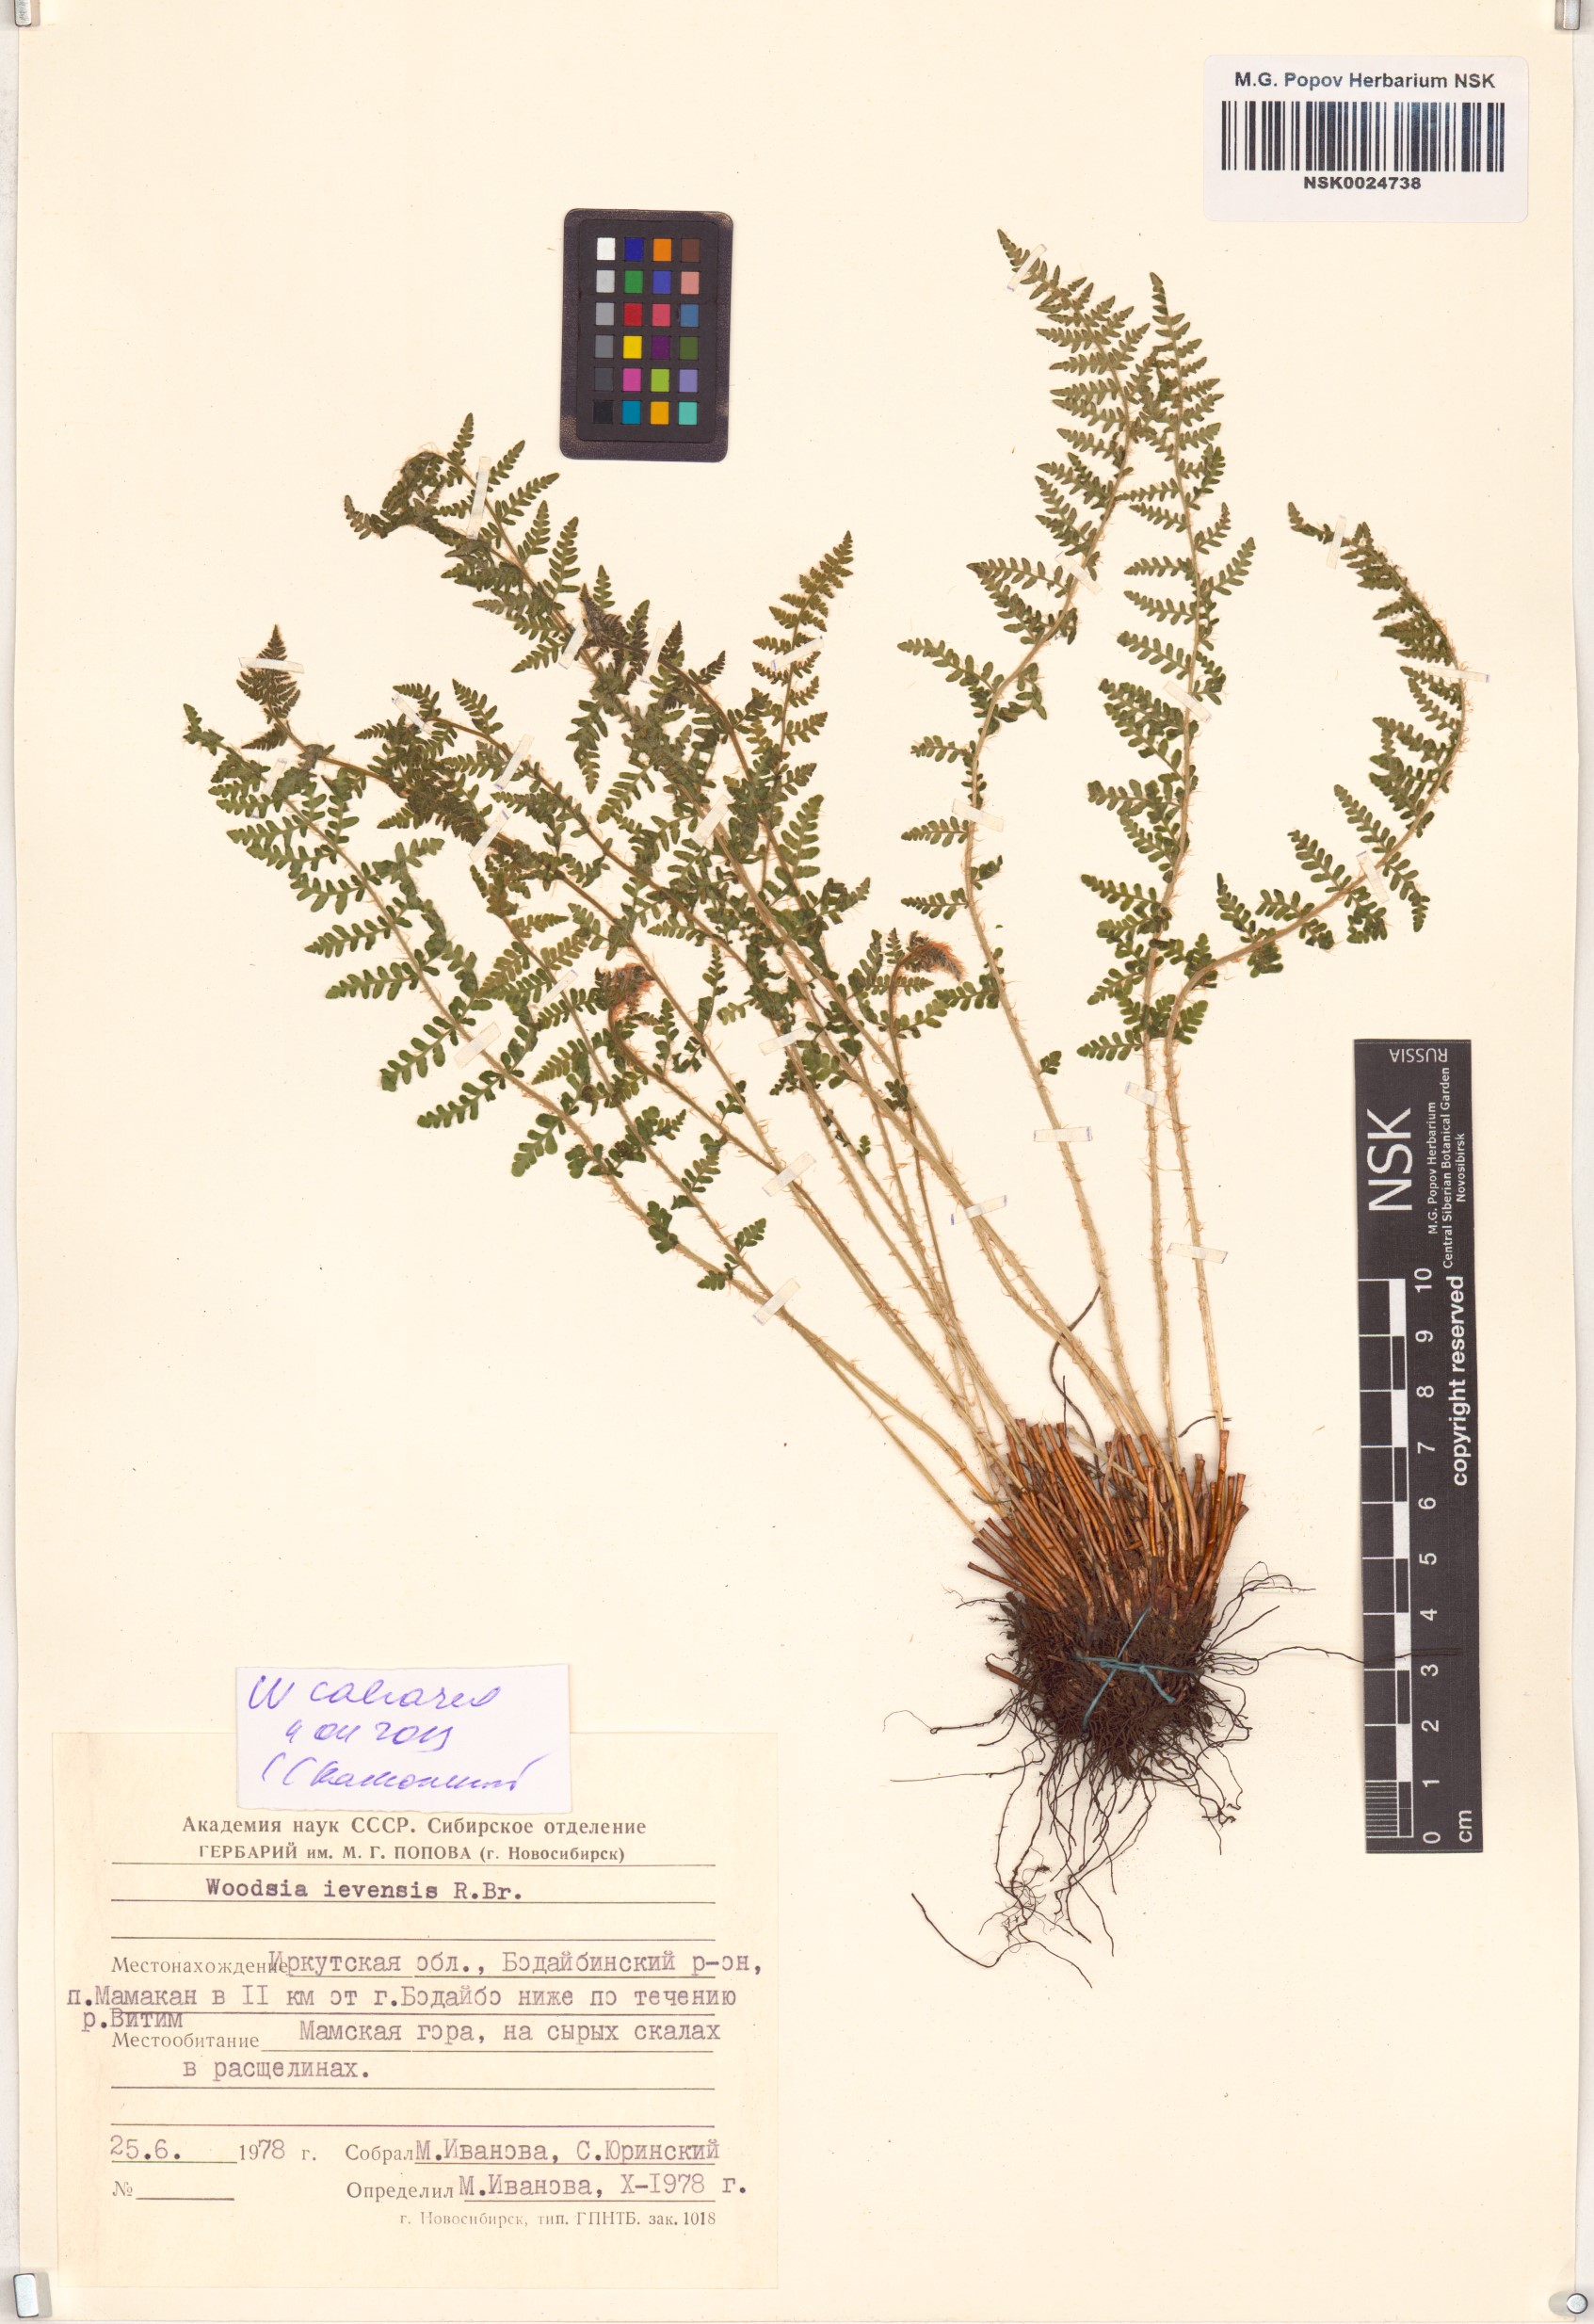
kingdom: Plantae
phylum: Tracheophyta
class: Polypodiopsida
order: Polypodiales
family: Woodsiaceae
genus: Woodsia
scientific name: Woodsia calcarea
